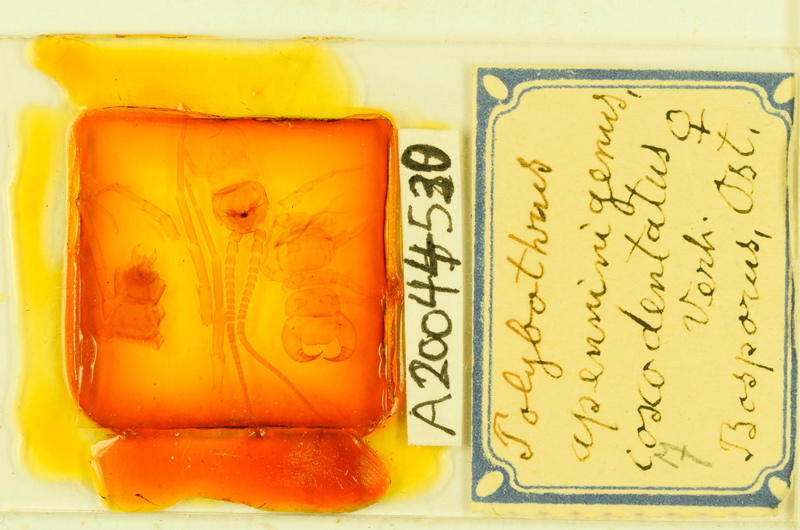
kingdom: Animalia
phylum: Arthropoda
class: Chilopoda
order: Lithobiomorpha
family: Lithobiidae
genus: Polybothrus
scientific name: Polybothrus
